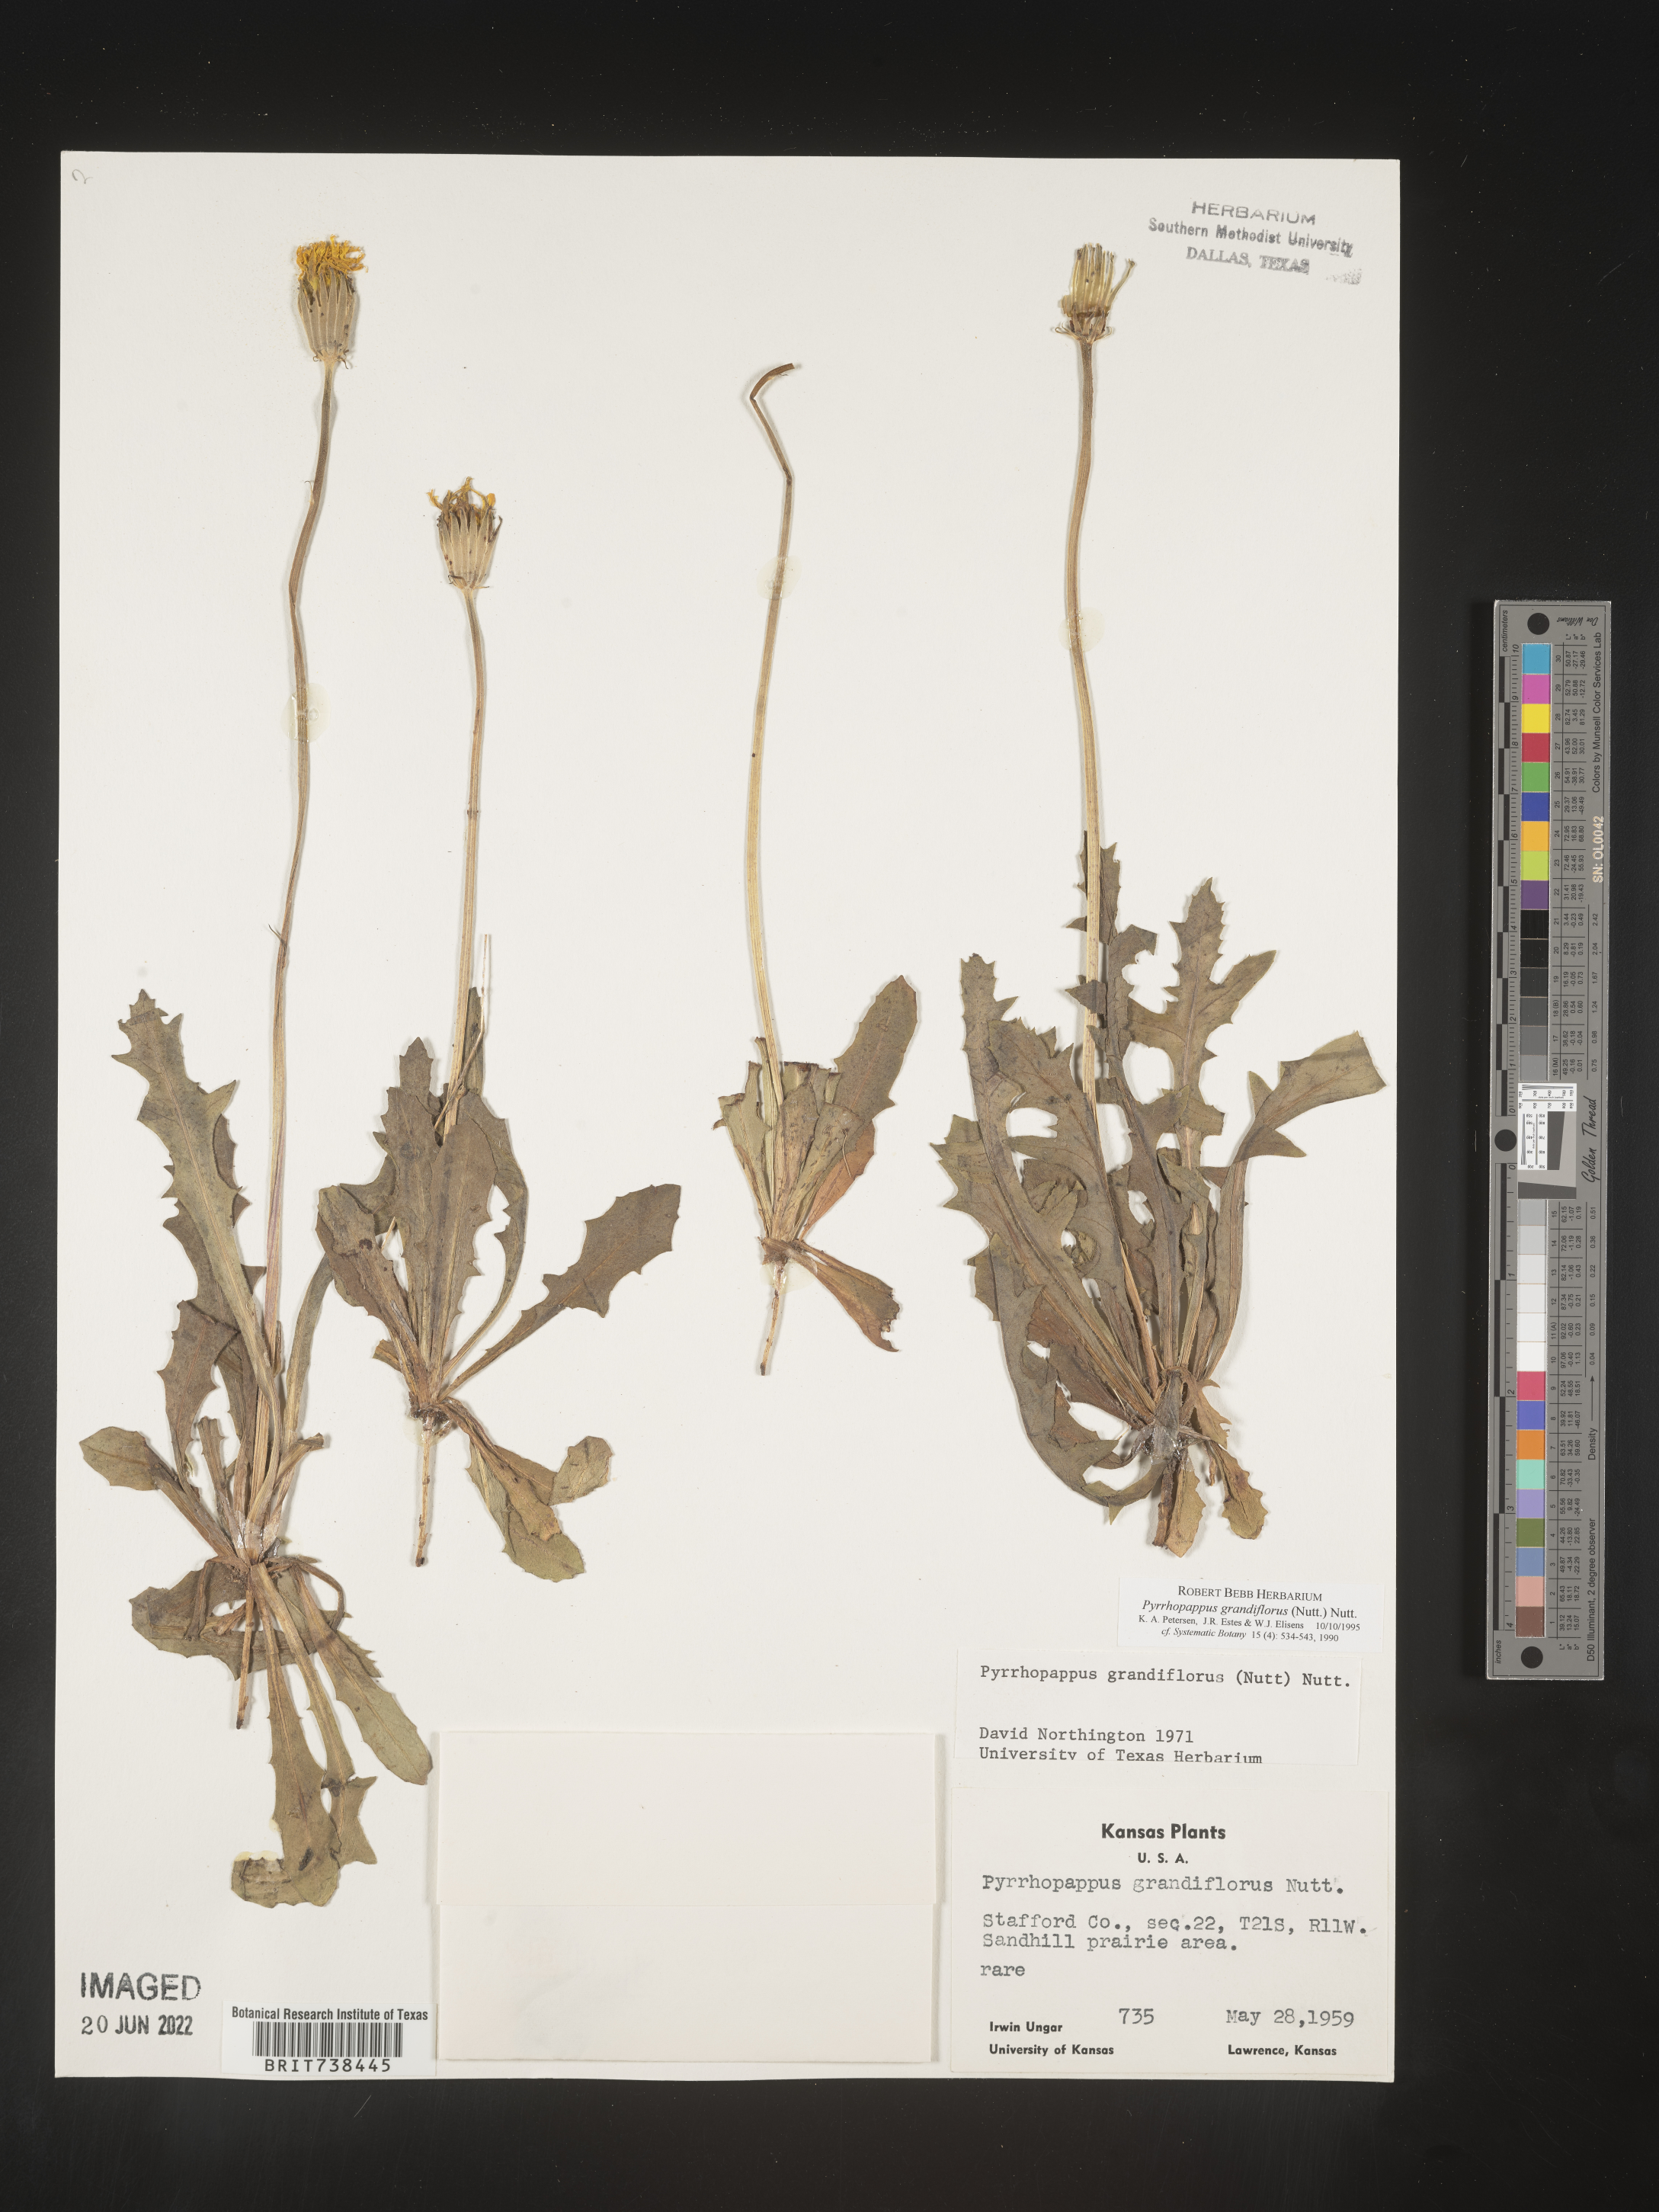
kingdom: Plantae
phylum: Tracheophyta
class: Magnoliopsida
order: Asterales
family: Asteraceae
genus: Pyrrhopappus
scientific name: Pyrrhopappus grandiflorus
